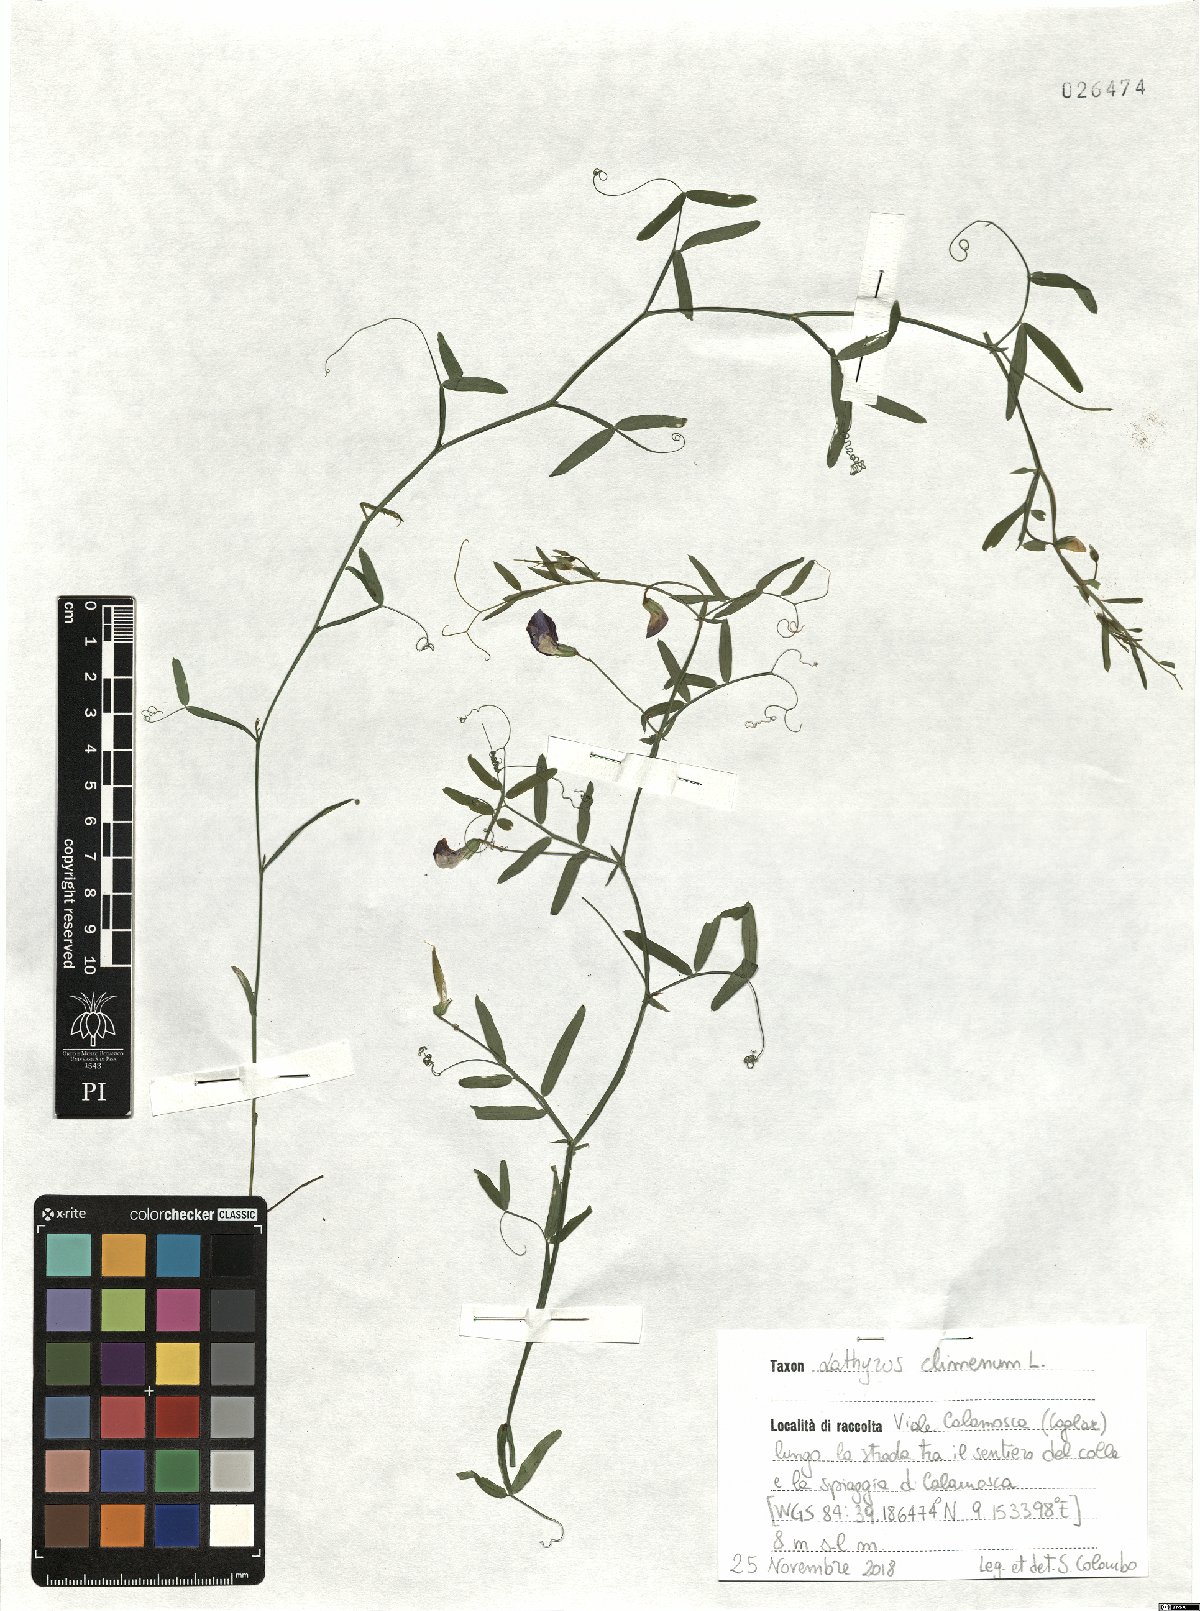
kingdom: Plantae
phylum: Tracheophyta
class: Magnoliopsida
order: Fabales
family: Fabaceae
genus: Lathyrus
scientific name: Lathyrus clymenum
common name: Spanish vetchling
